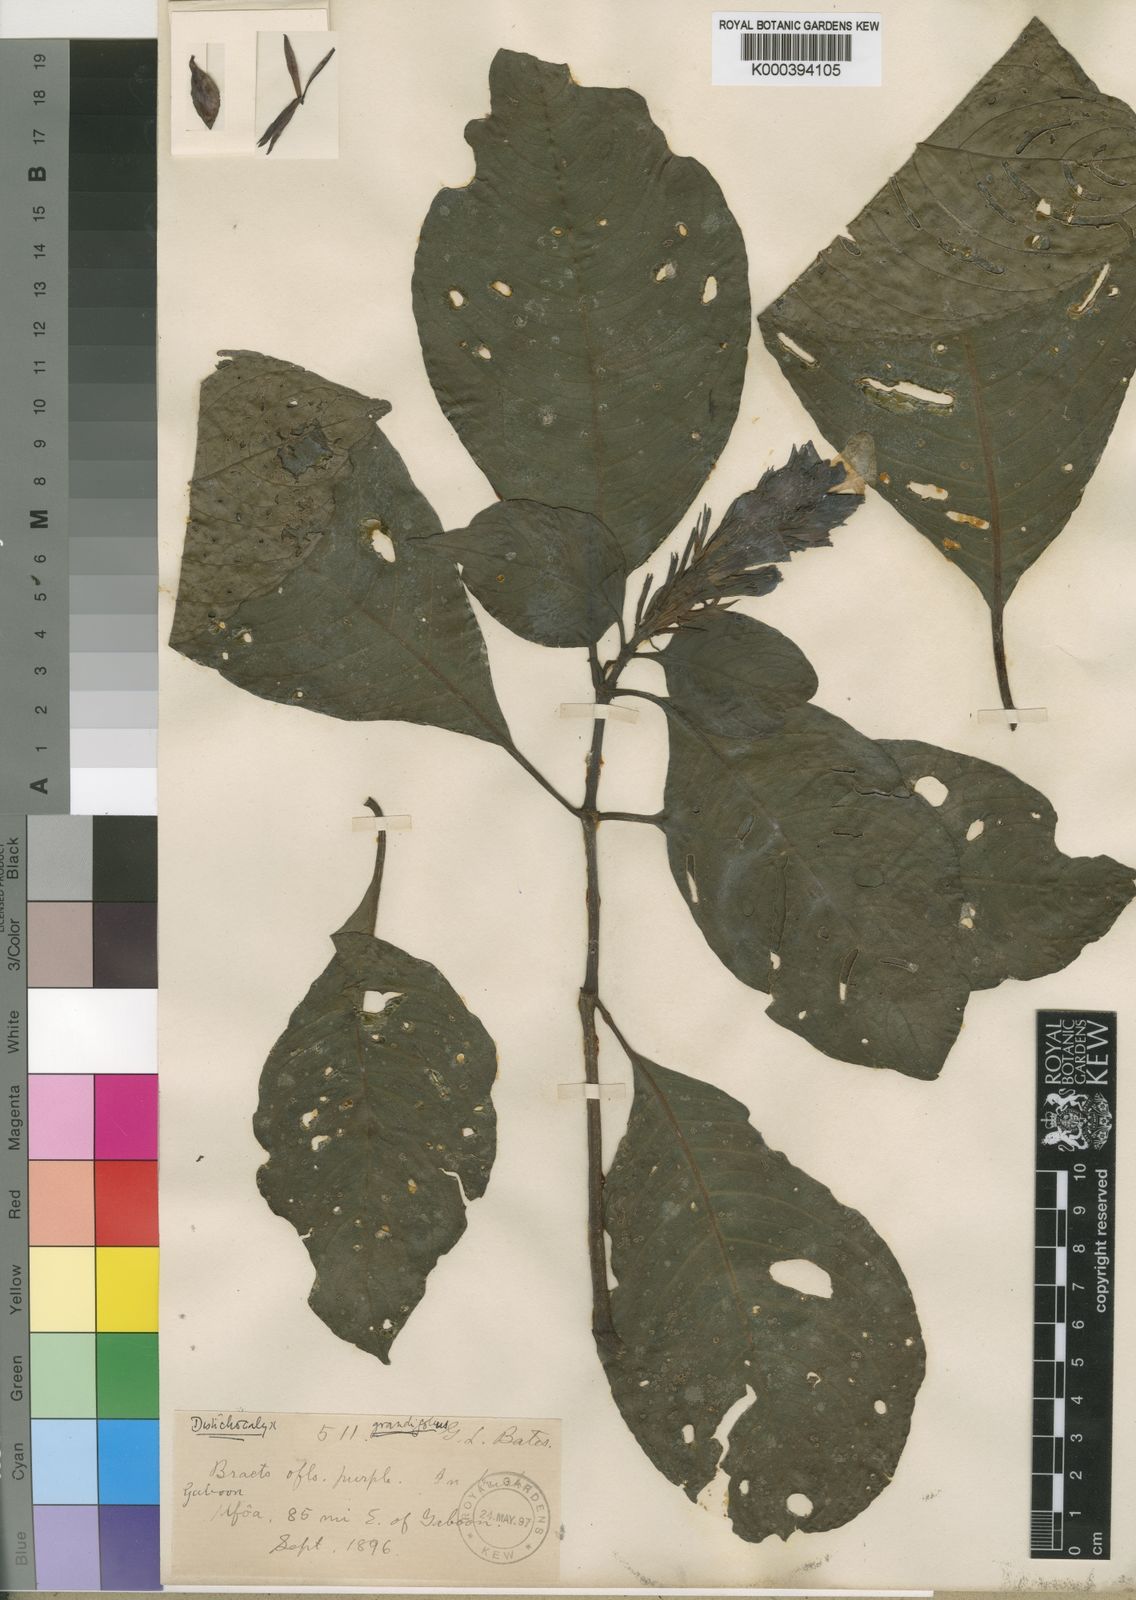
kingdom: Plantae
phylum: Tracheophyta
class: Magnoliopsida
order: Lamiales
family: Acanthaceae
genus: Dischistocalyx
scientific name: Dischistocalyx grandifolius
